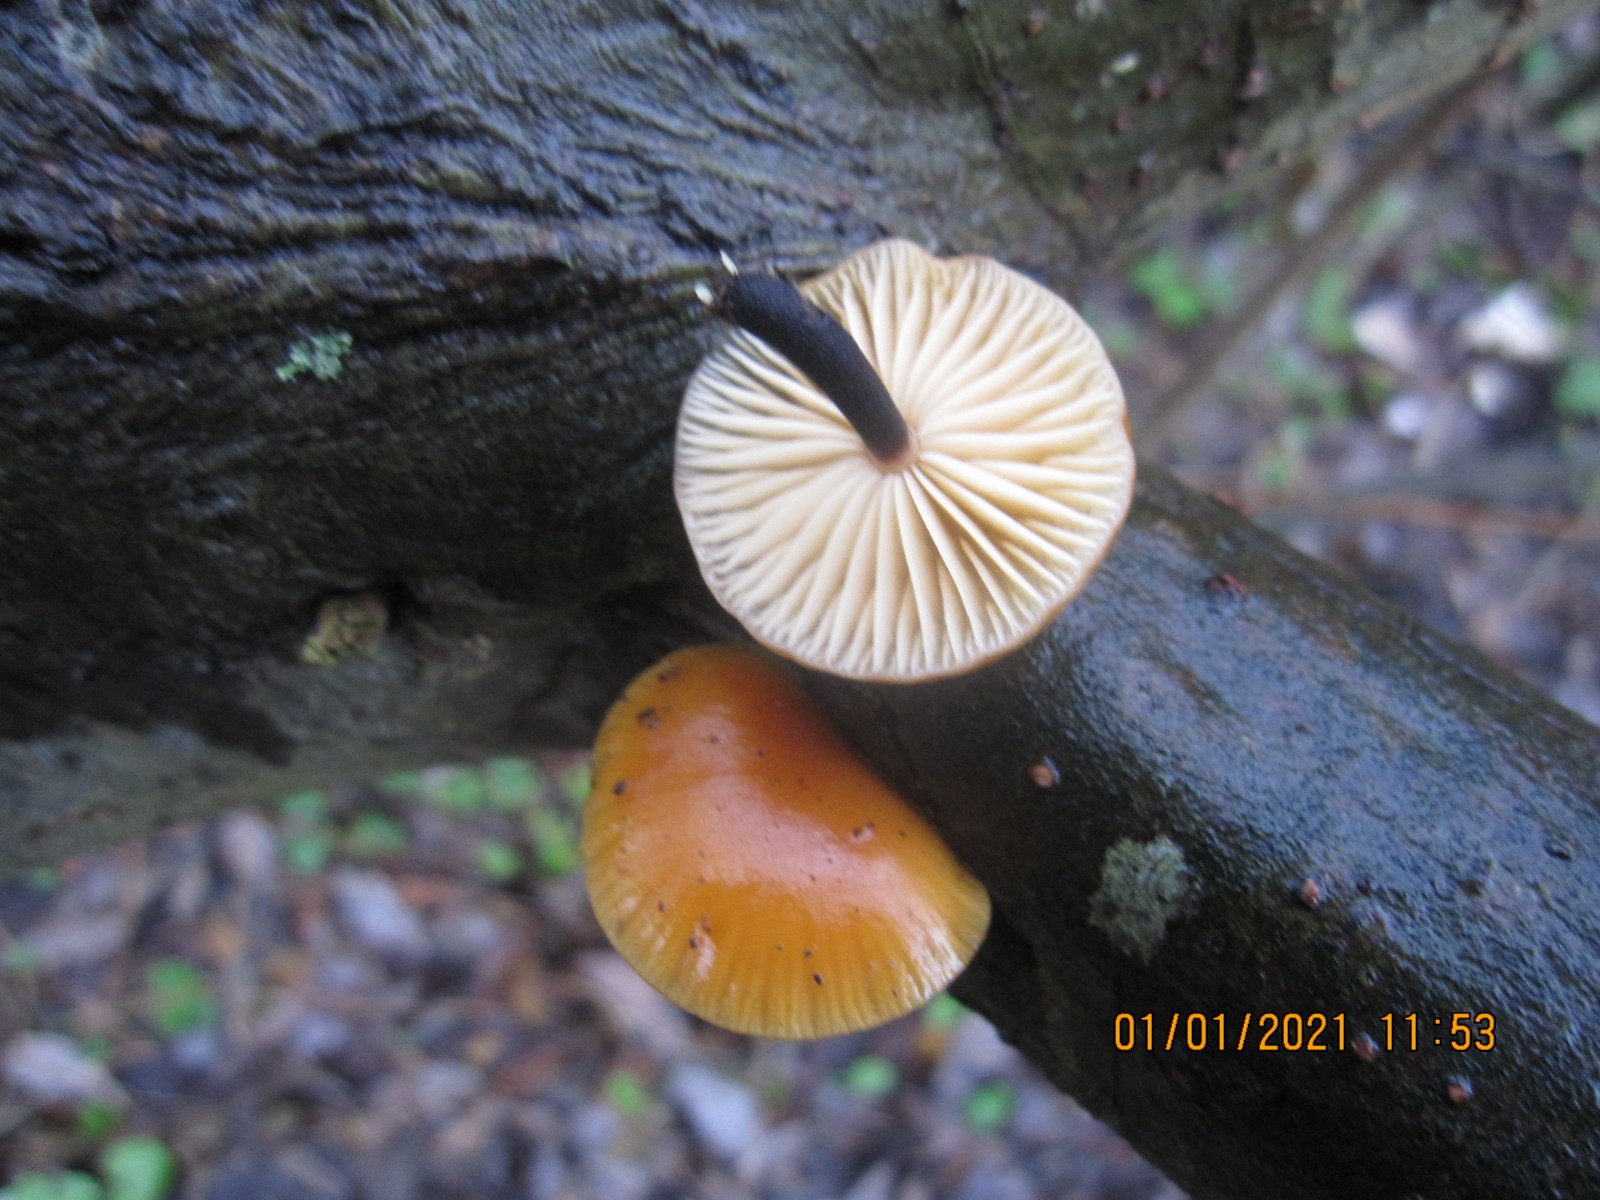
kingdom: Fungi
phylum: Basidiomycota
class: Agaricomycetes
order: Agaricales
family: Physalacriaceae
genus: Flammulina
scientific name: Flammulina elastica
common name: pile-fløjlsfod
